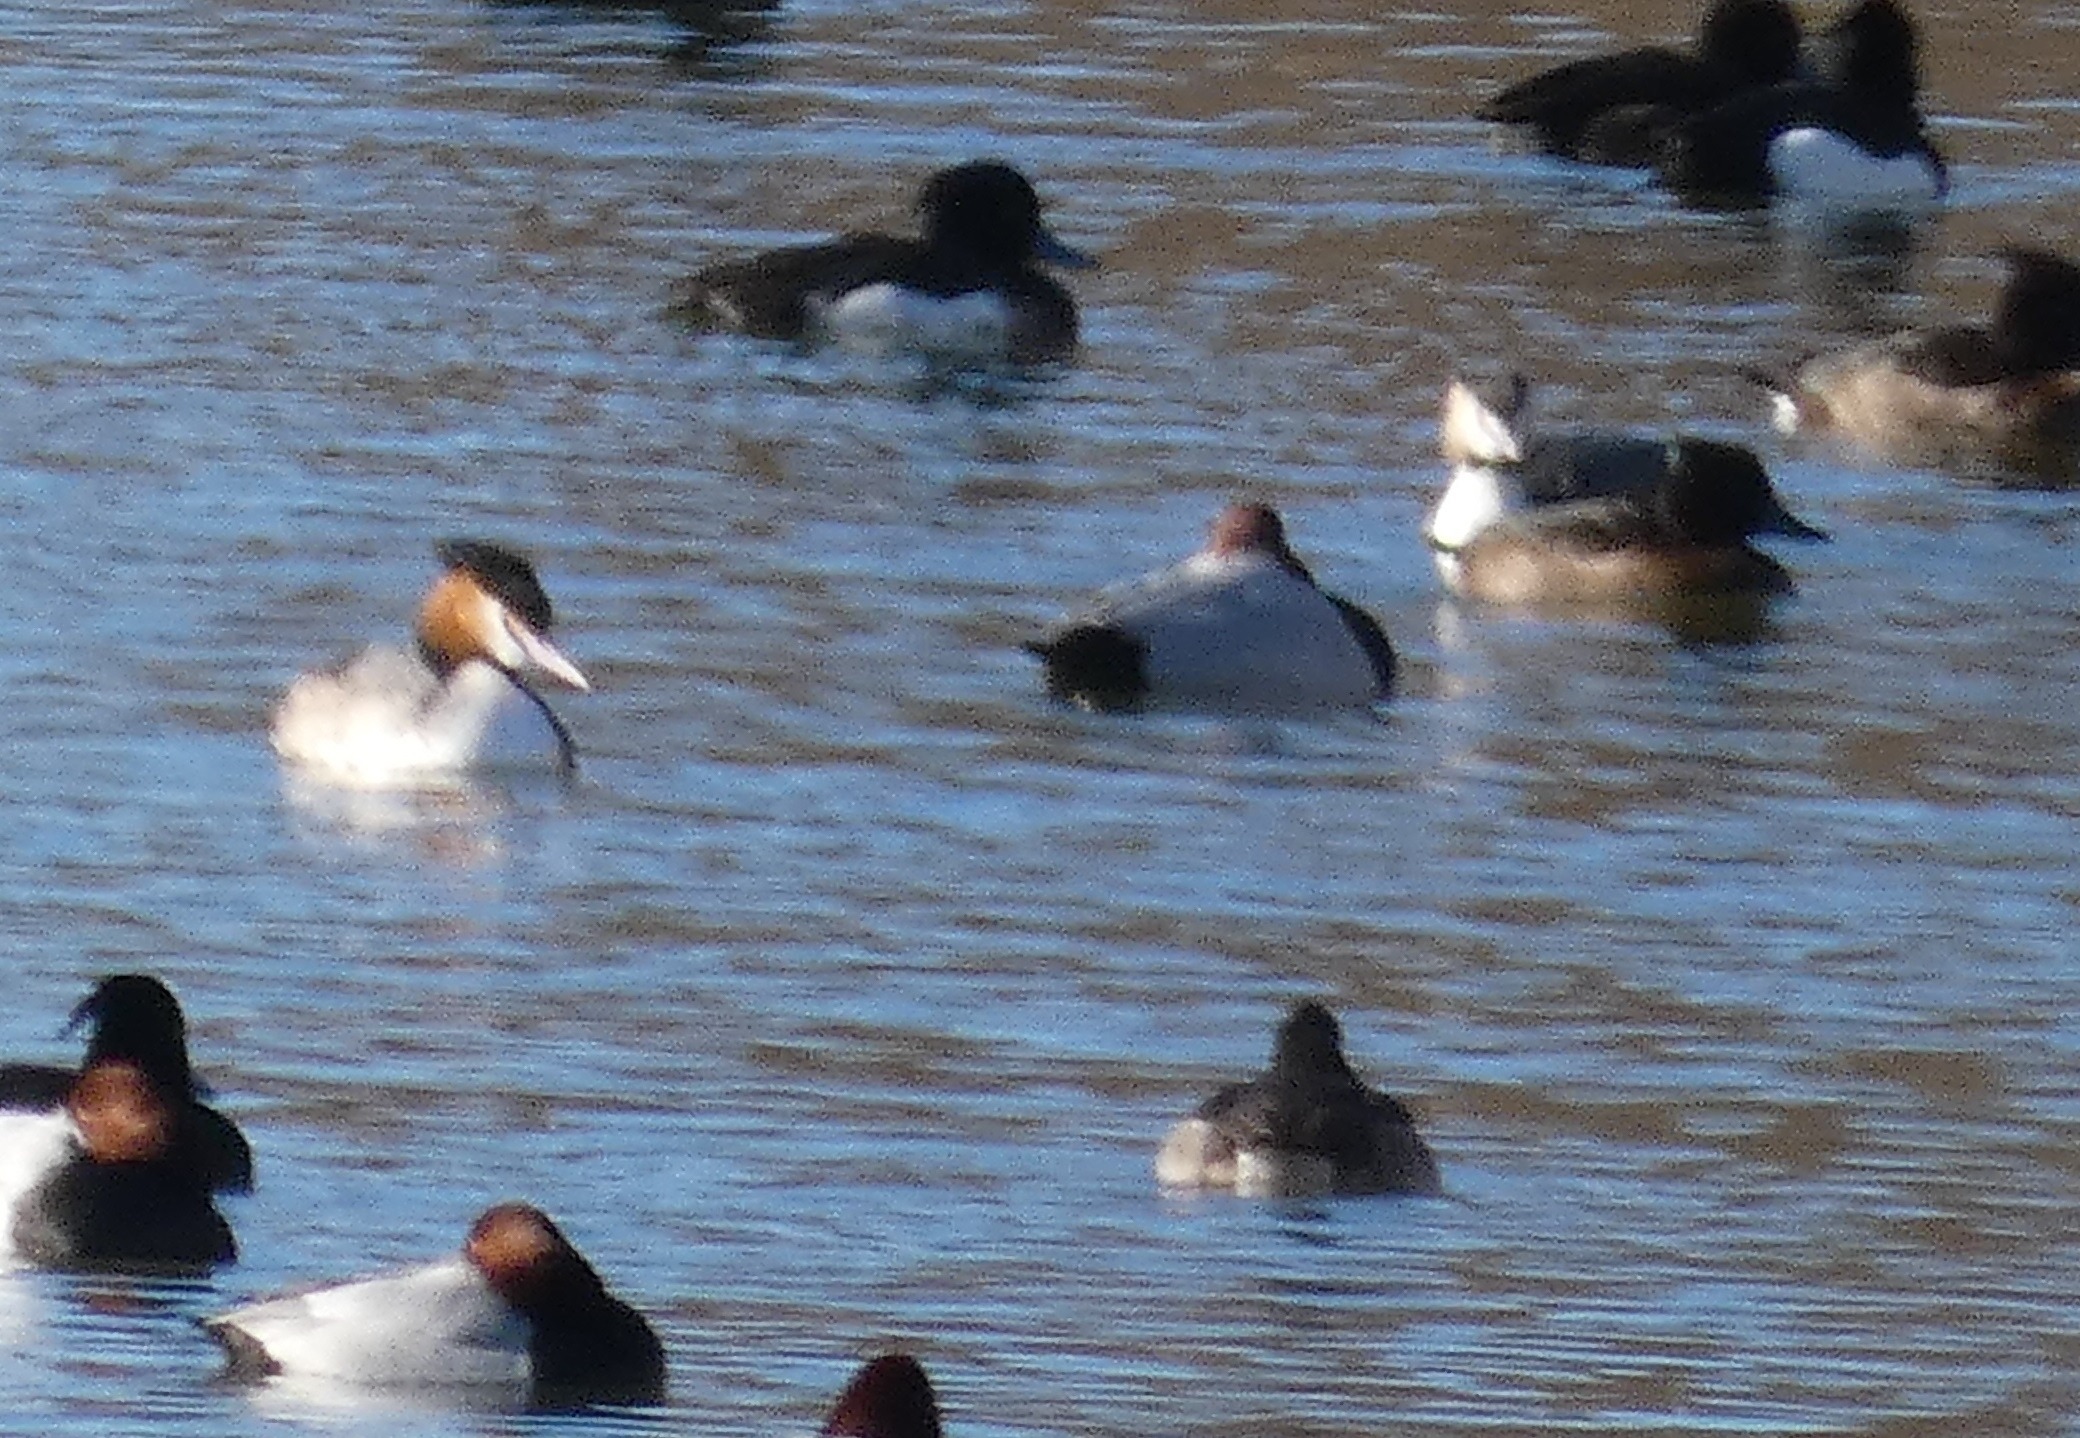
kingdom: Animalia
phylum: Chordata
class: Aves
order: Podicipediformes
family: Podicipedidae
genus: Podiceps
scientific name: Podiceps cristatus
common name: Toppet lappedykker
